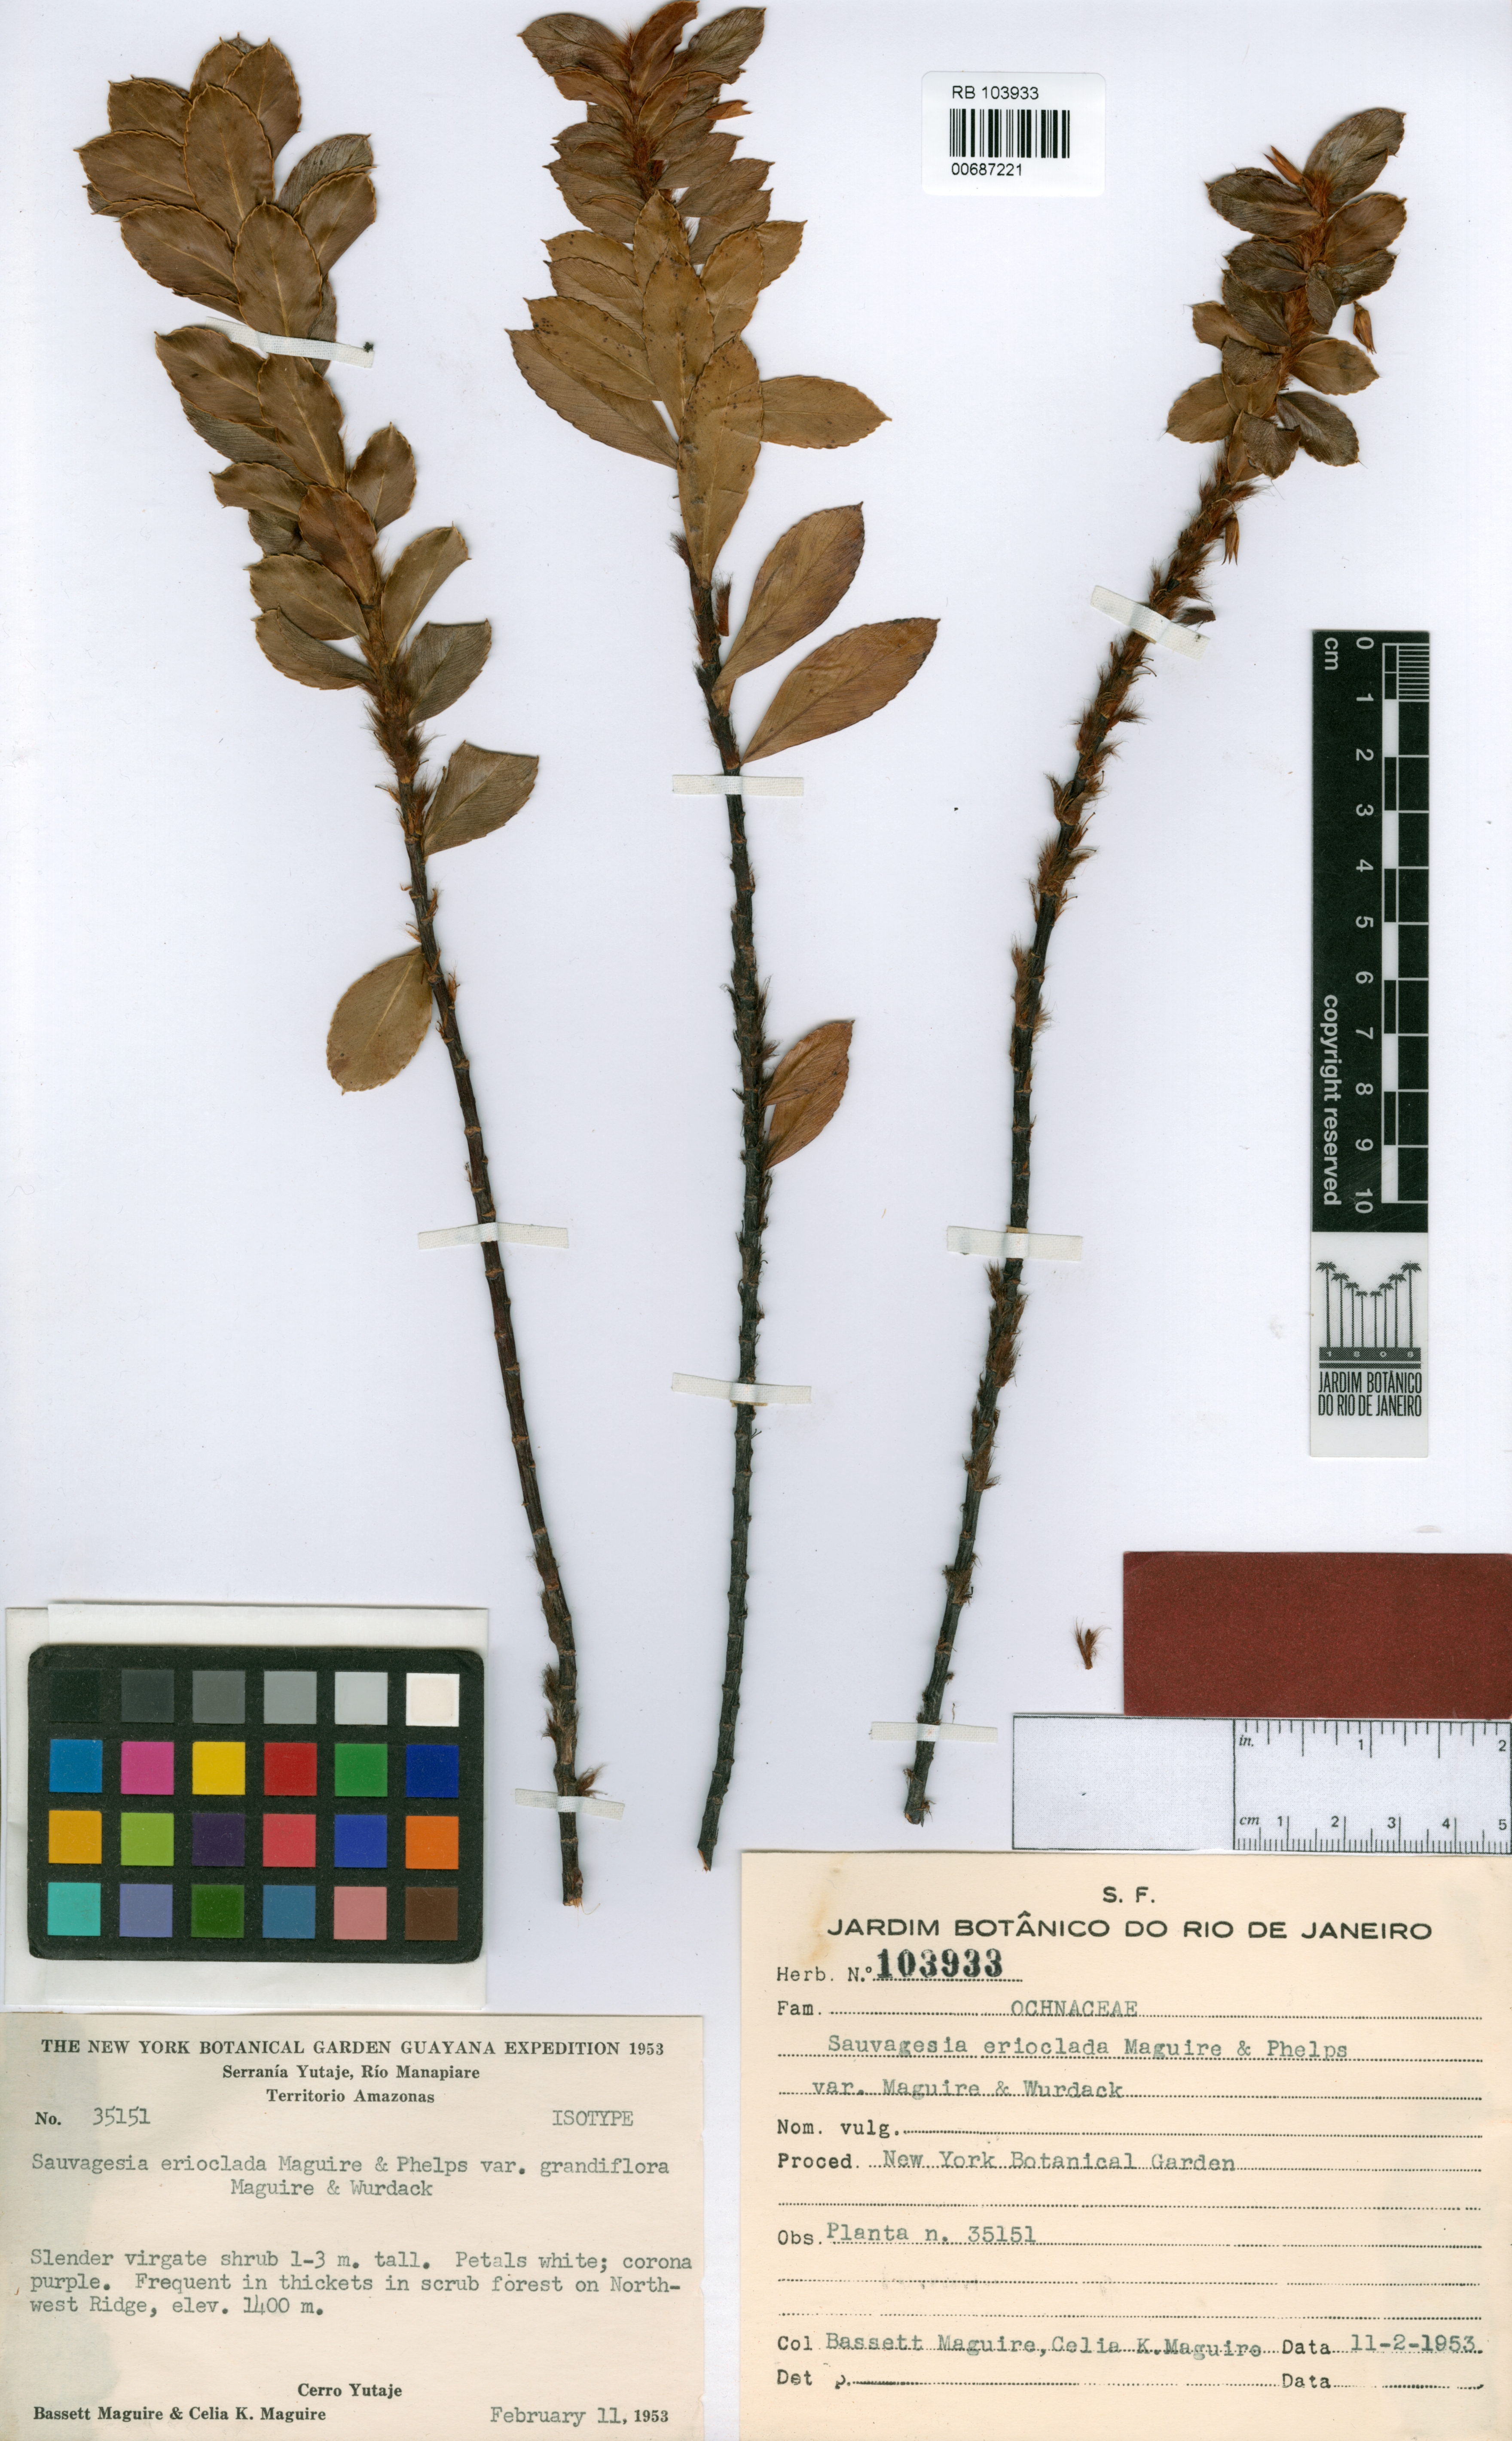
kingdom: Plantae
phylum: Tracheophyta
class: Magnoliopsida
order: Malpighiales
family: Ochnaceae
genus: Sauvagesia
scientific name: Sauvagesia erioclada
